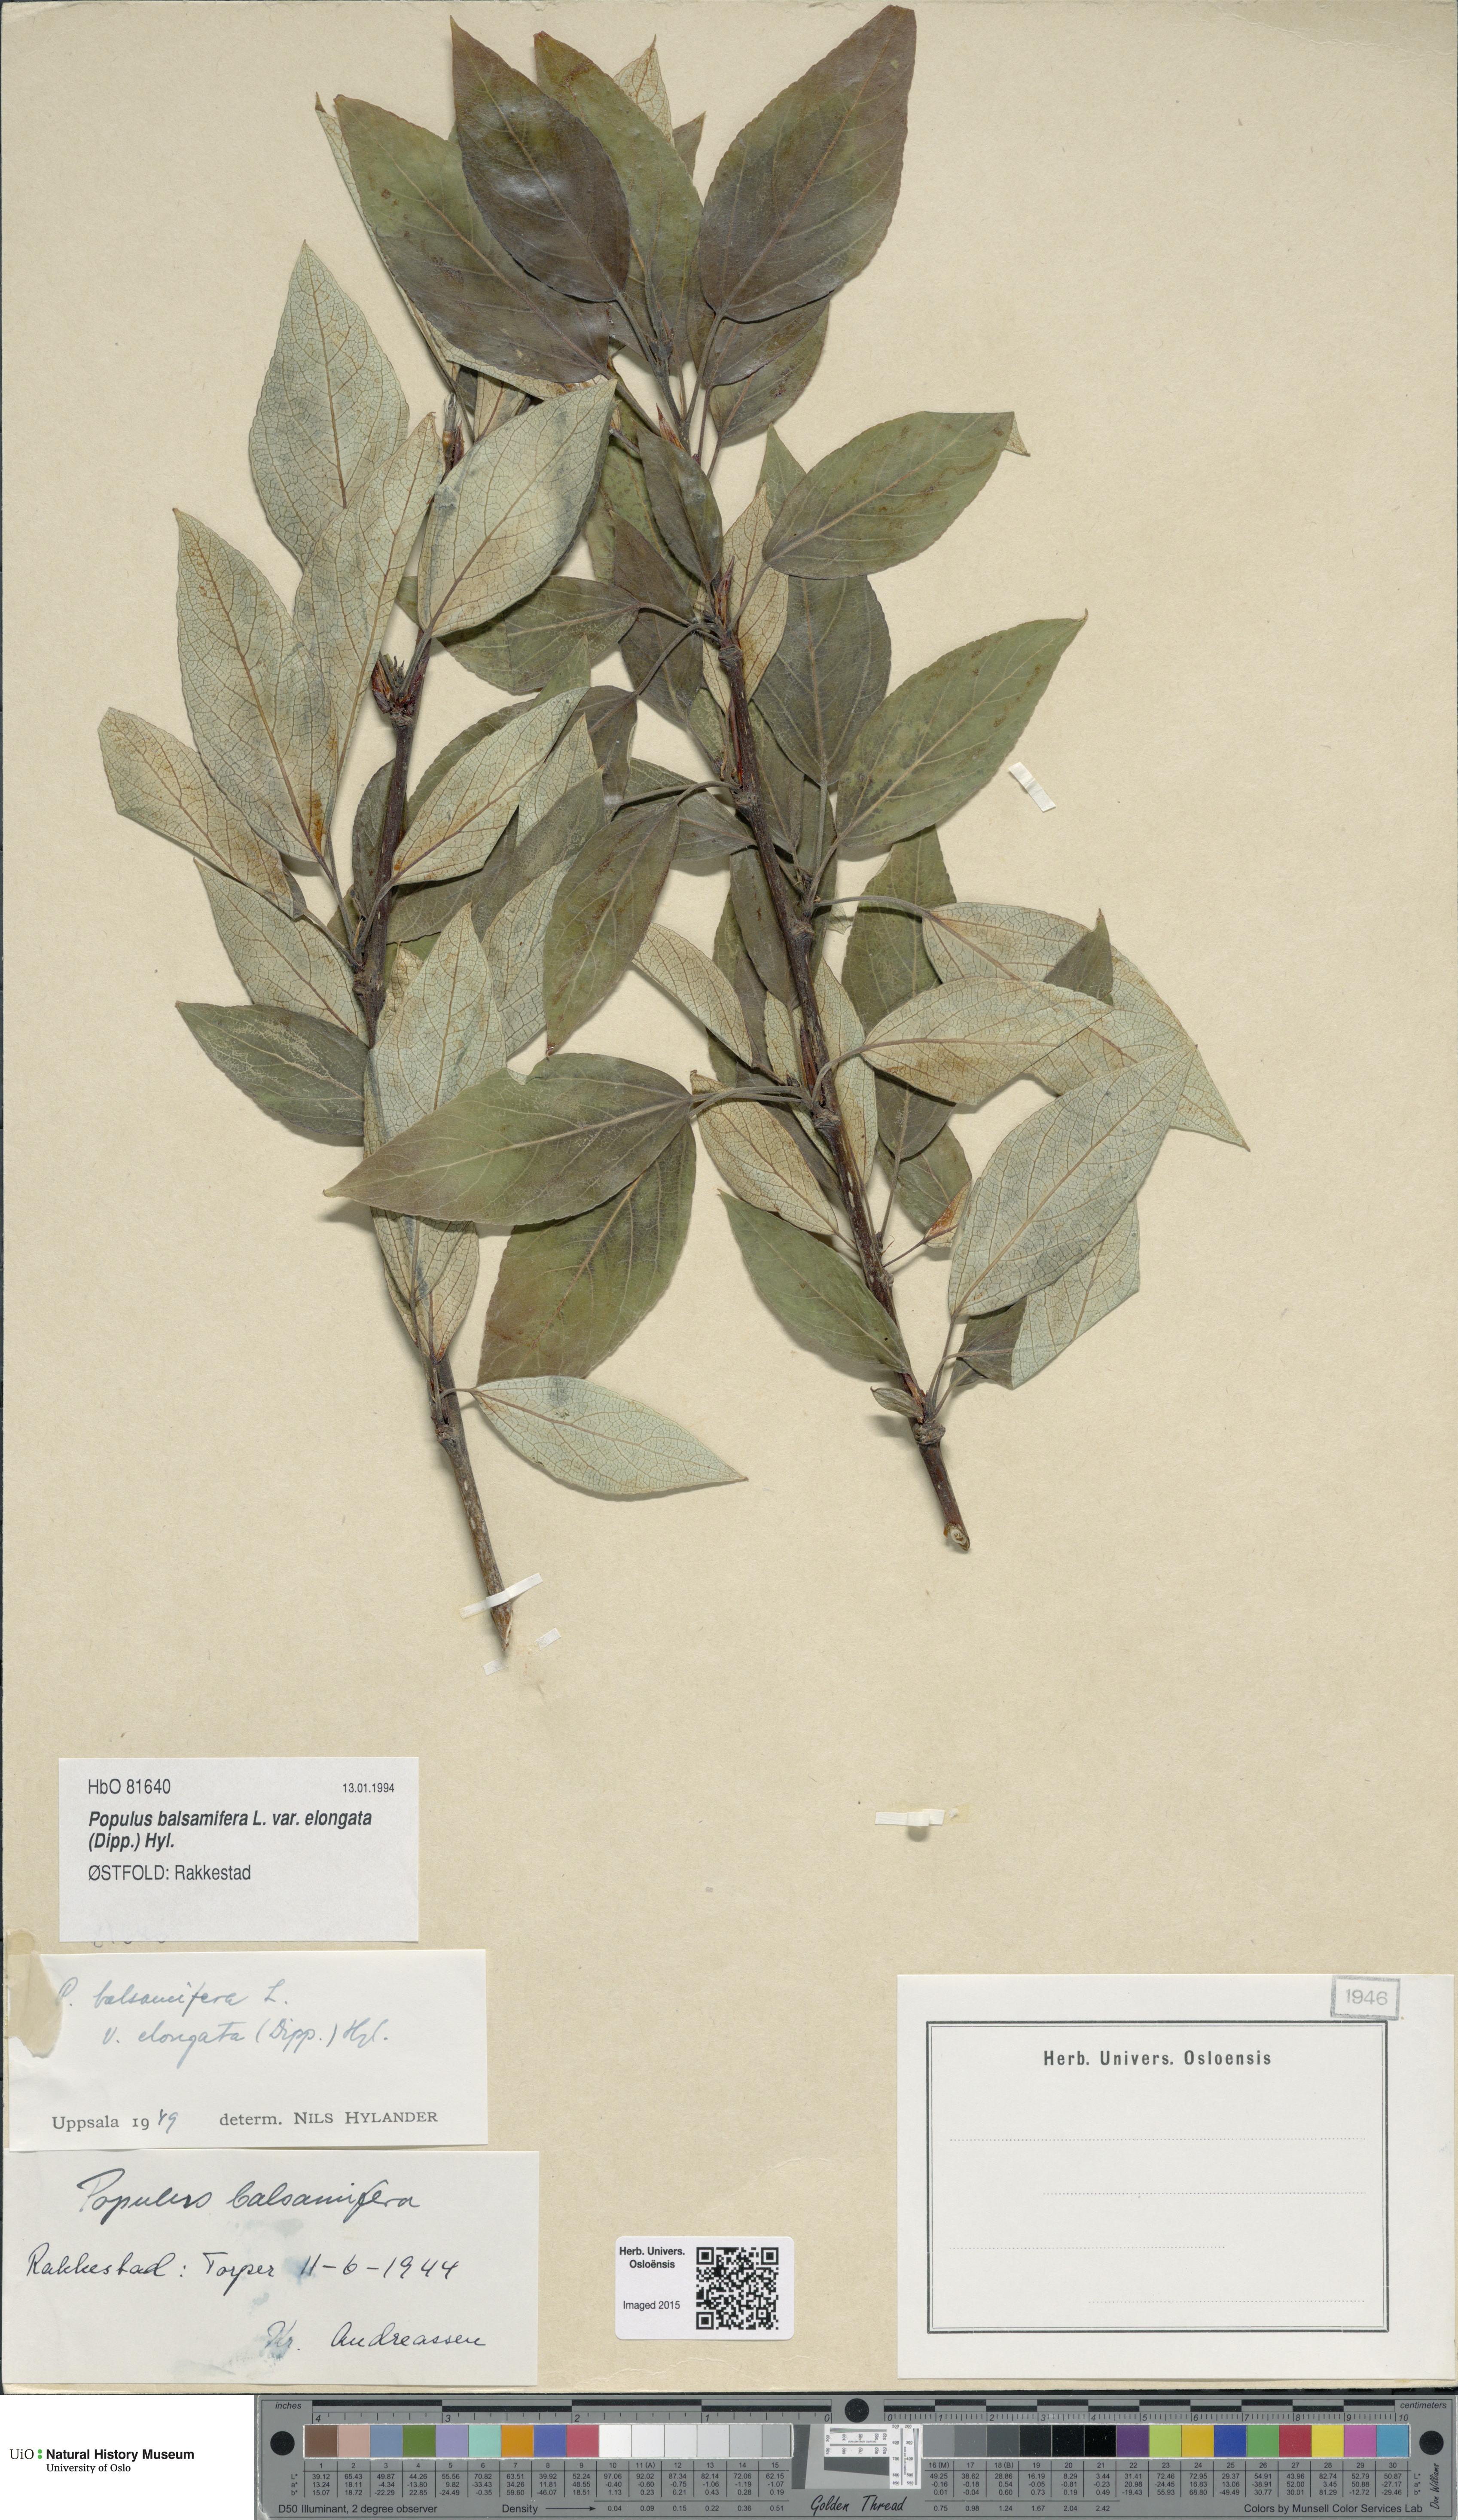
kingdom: Plantae
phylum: Tracheophyta
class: Magnoliopsida
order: Malpighiales
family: Salicaceae
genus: Populus
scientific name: Populus balsamifera
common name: Balsam poplar
